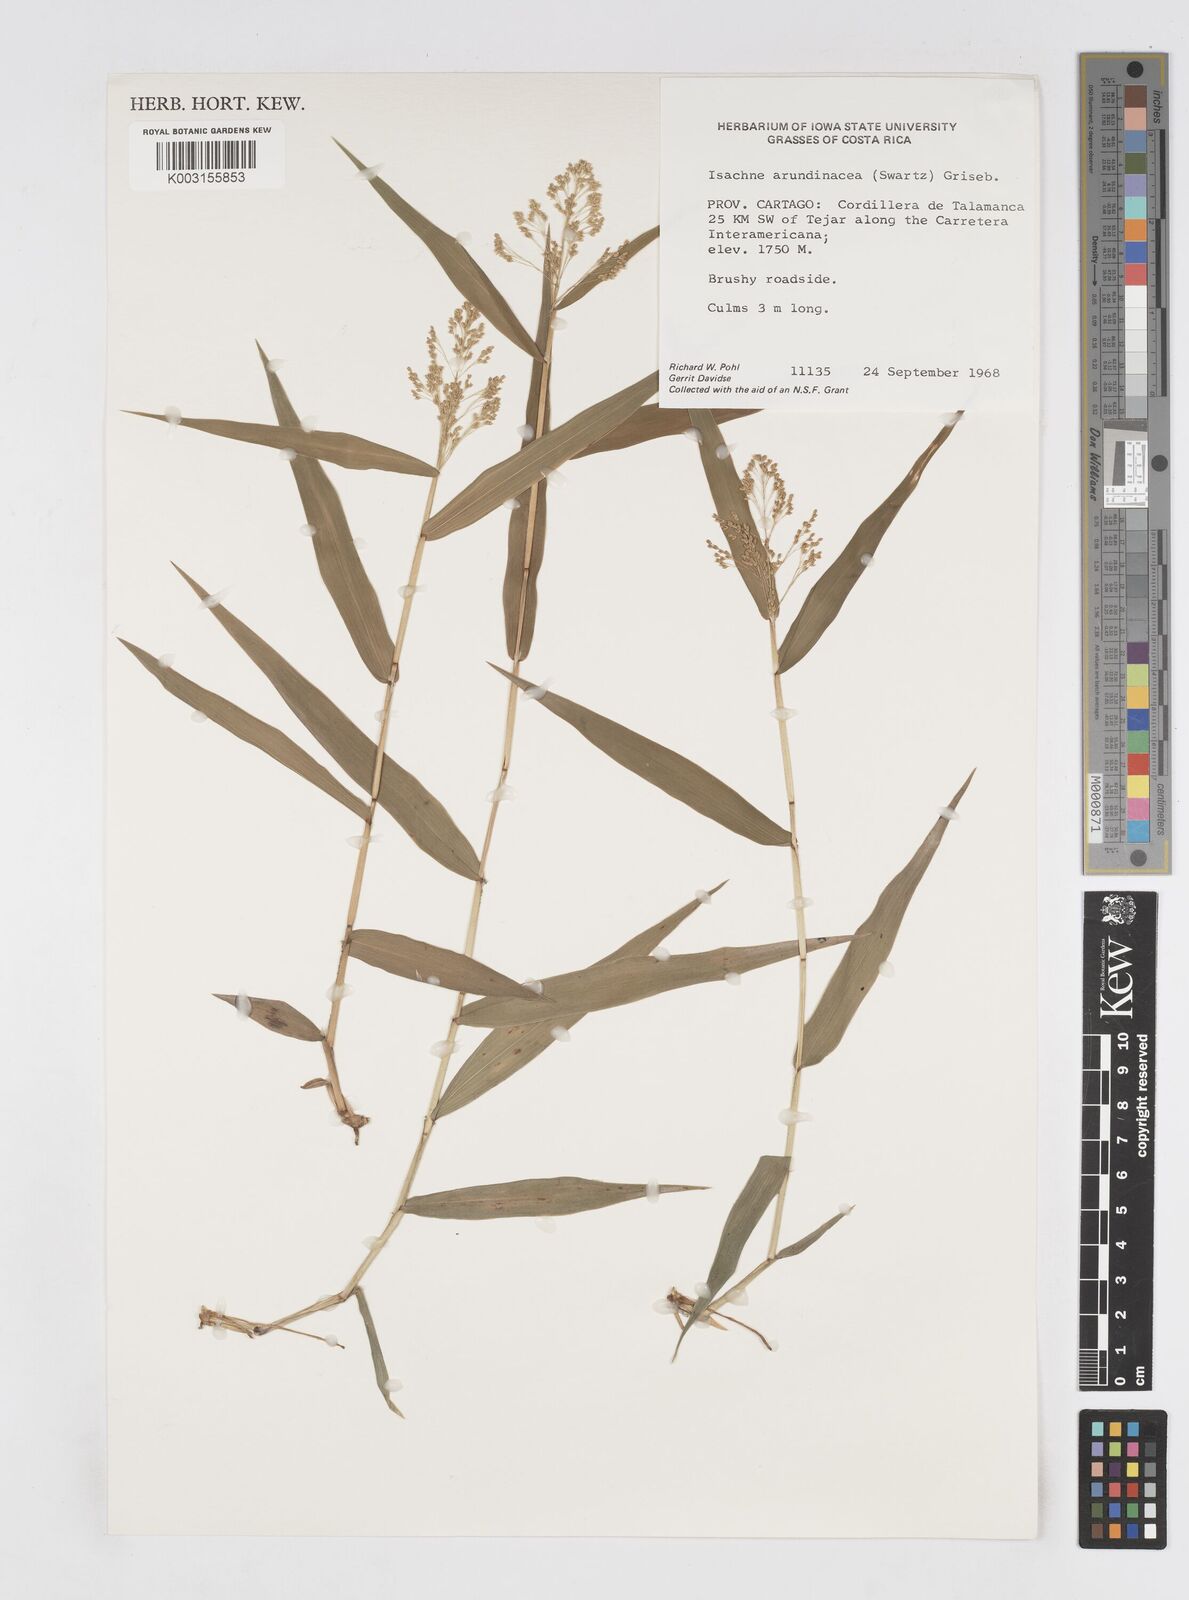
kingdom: Plantae
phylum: Tracheophyta
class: Liliopsida
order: Poales
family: Poaceae
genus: Isachne
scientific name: Isachne arundinacea
